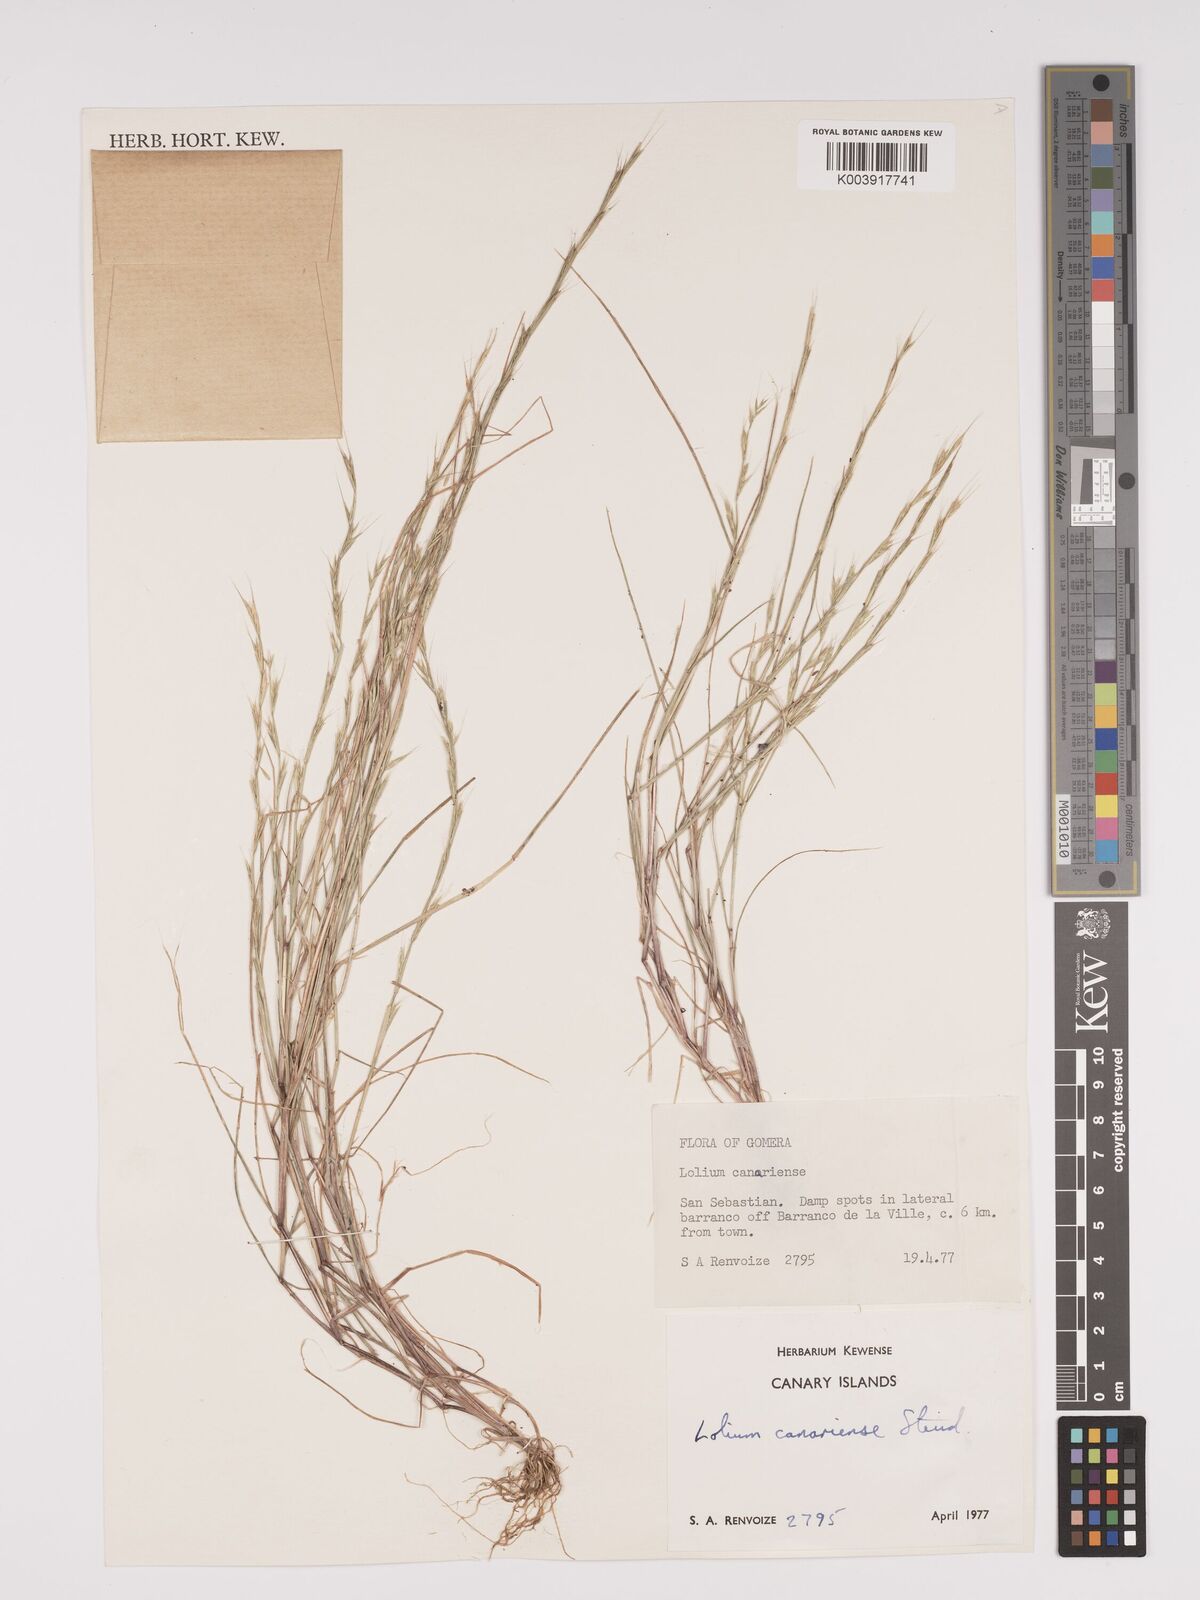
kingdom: Plantae
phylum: Tracheophyta
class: Liliopsida
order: Poales
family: Poaceae
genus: Lolium
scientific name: Lolium canariense
